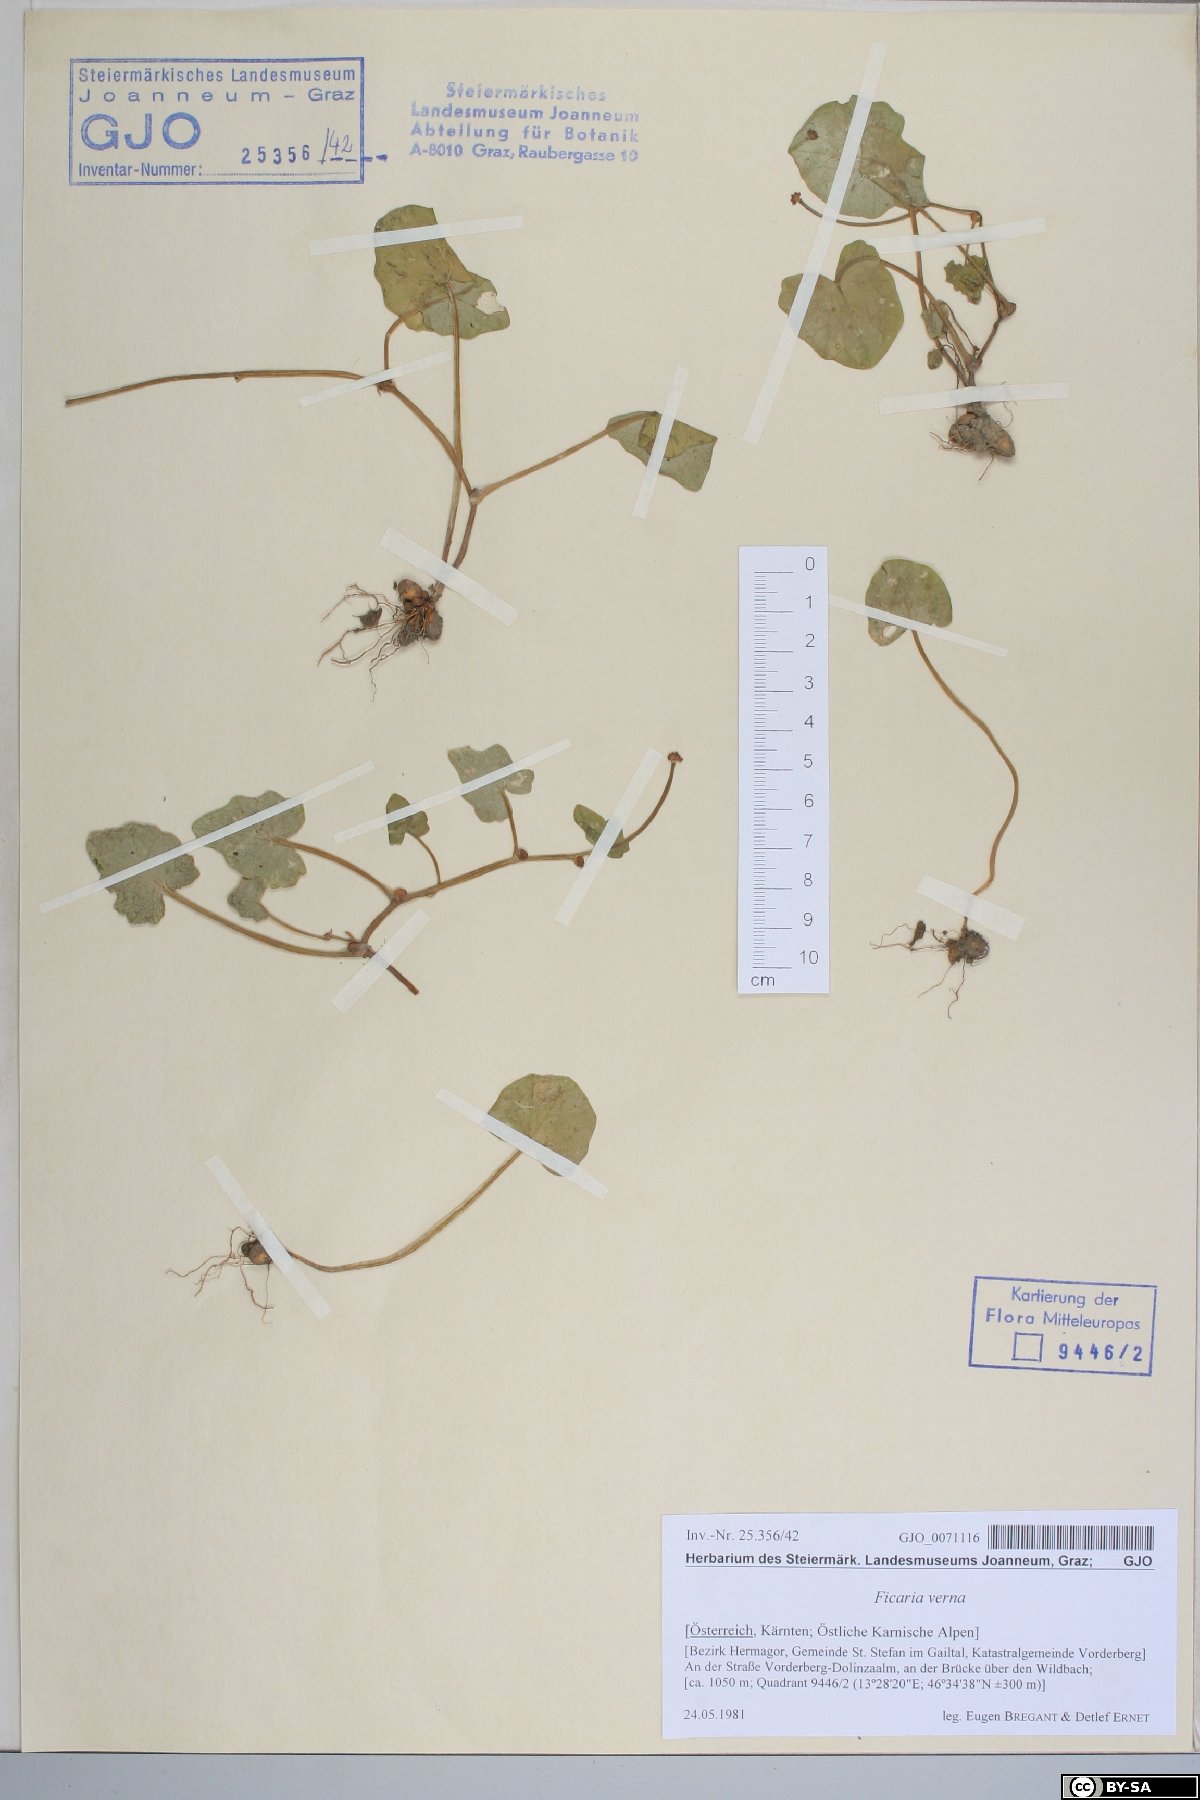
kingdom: Plantae
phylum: Tracheophyta
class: Magnoliopsida
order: Ranunculales
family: Ranunculaceae
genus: Ficaria
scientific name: Ficaria verna
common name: Lesser celandine
